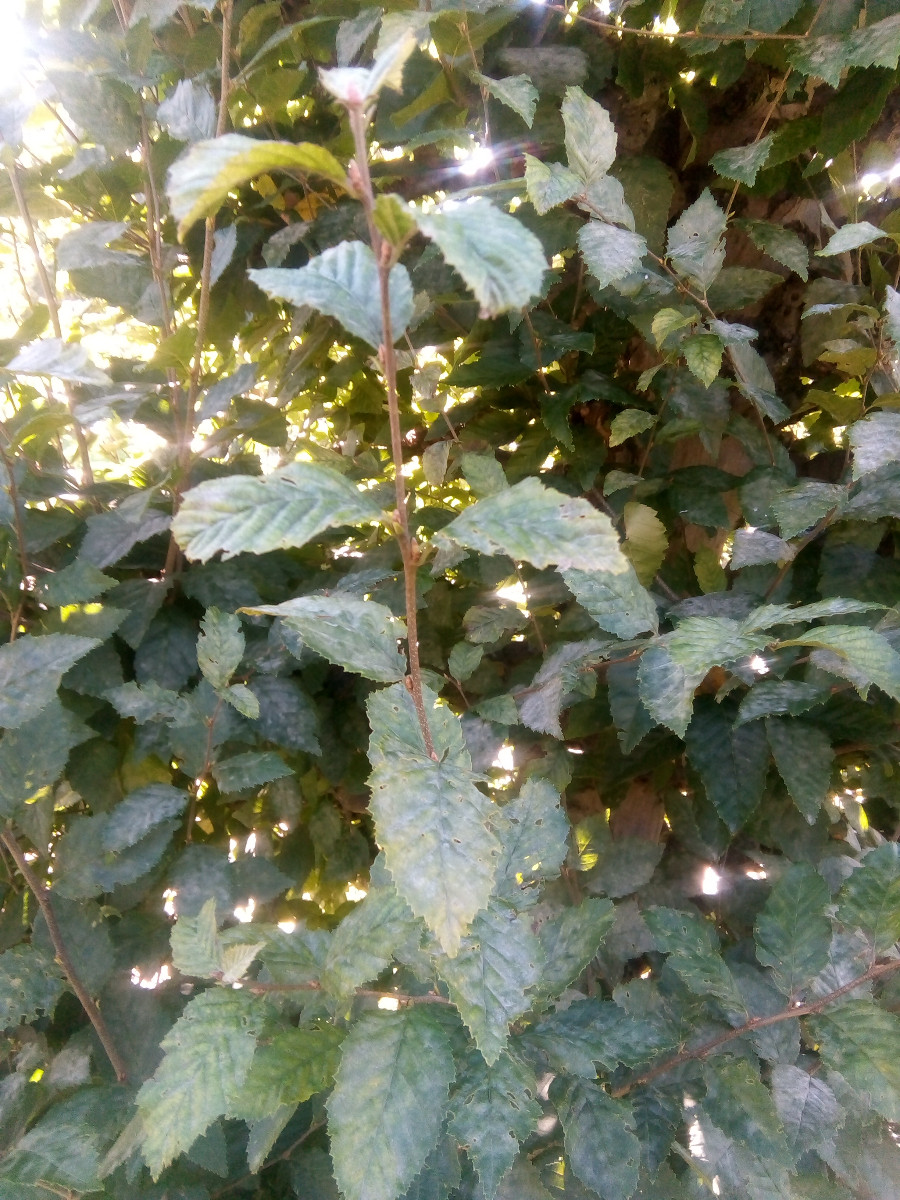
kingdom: Fungi
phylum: Ascomycota
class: Leotiomycetes
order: Helotiales
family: Erysiphaceae
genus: Erysiphe
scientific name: Erysiphe arcuata
